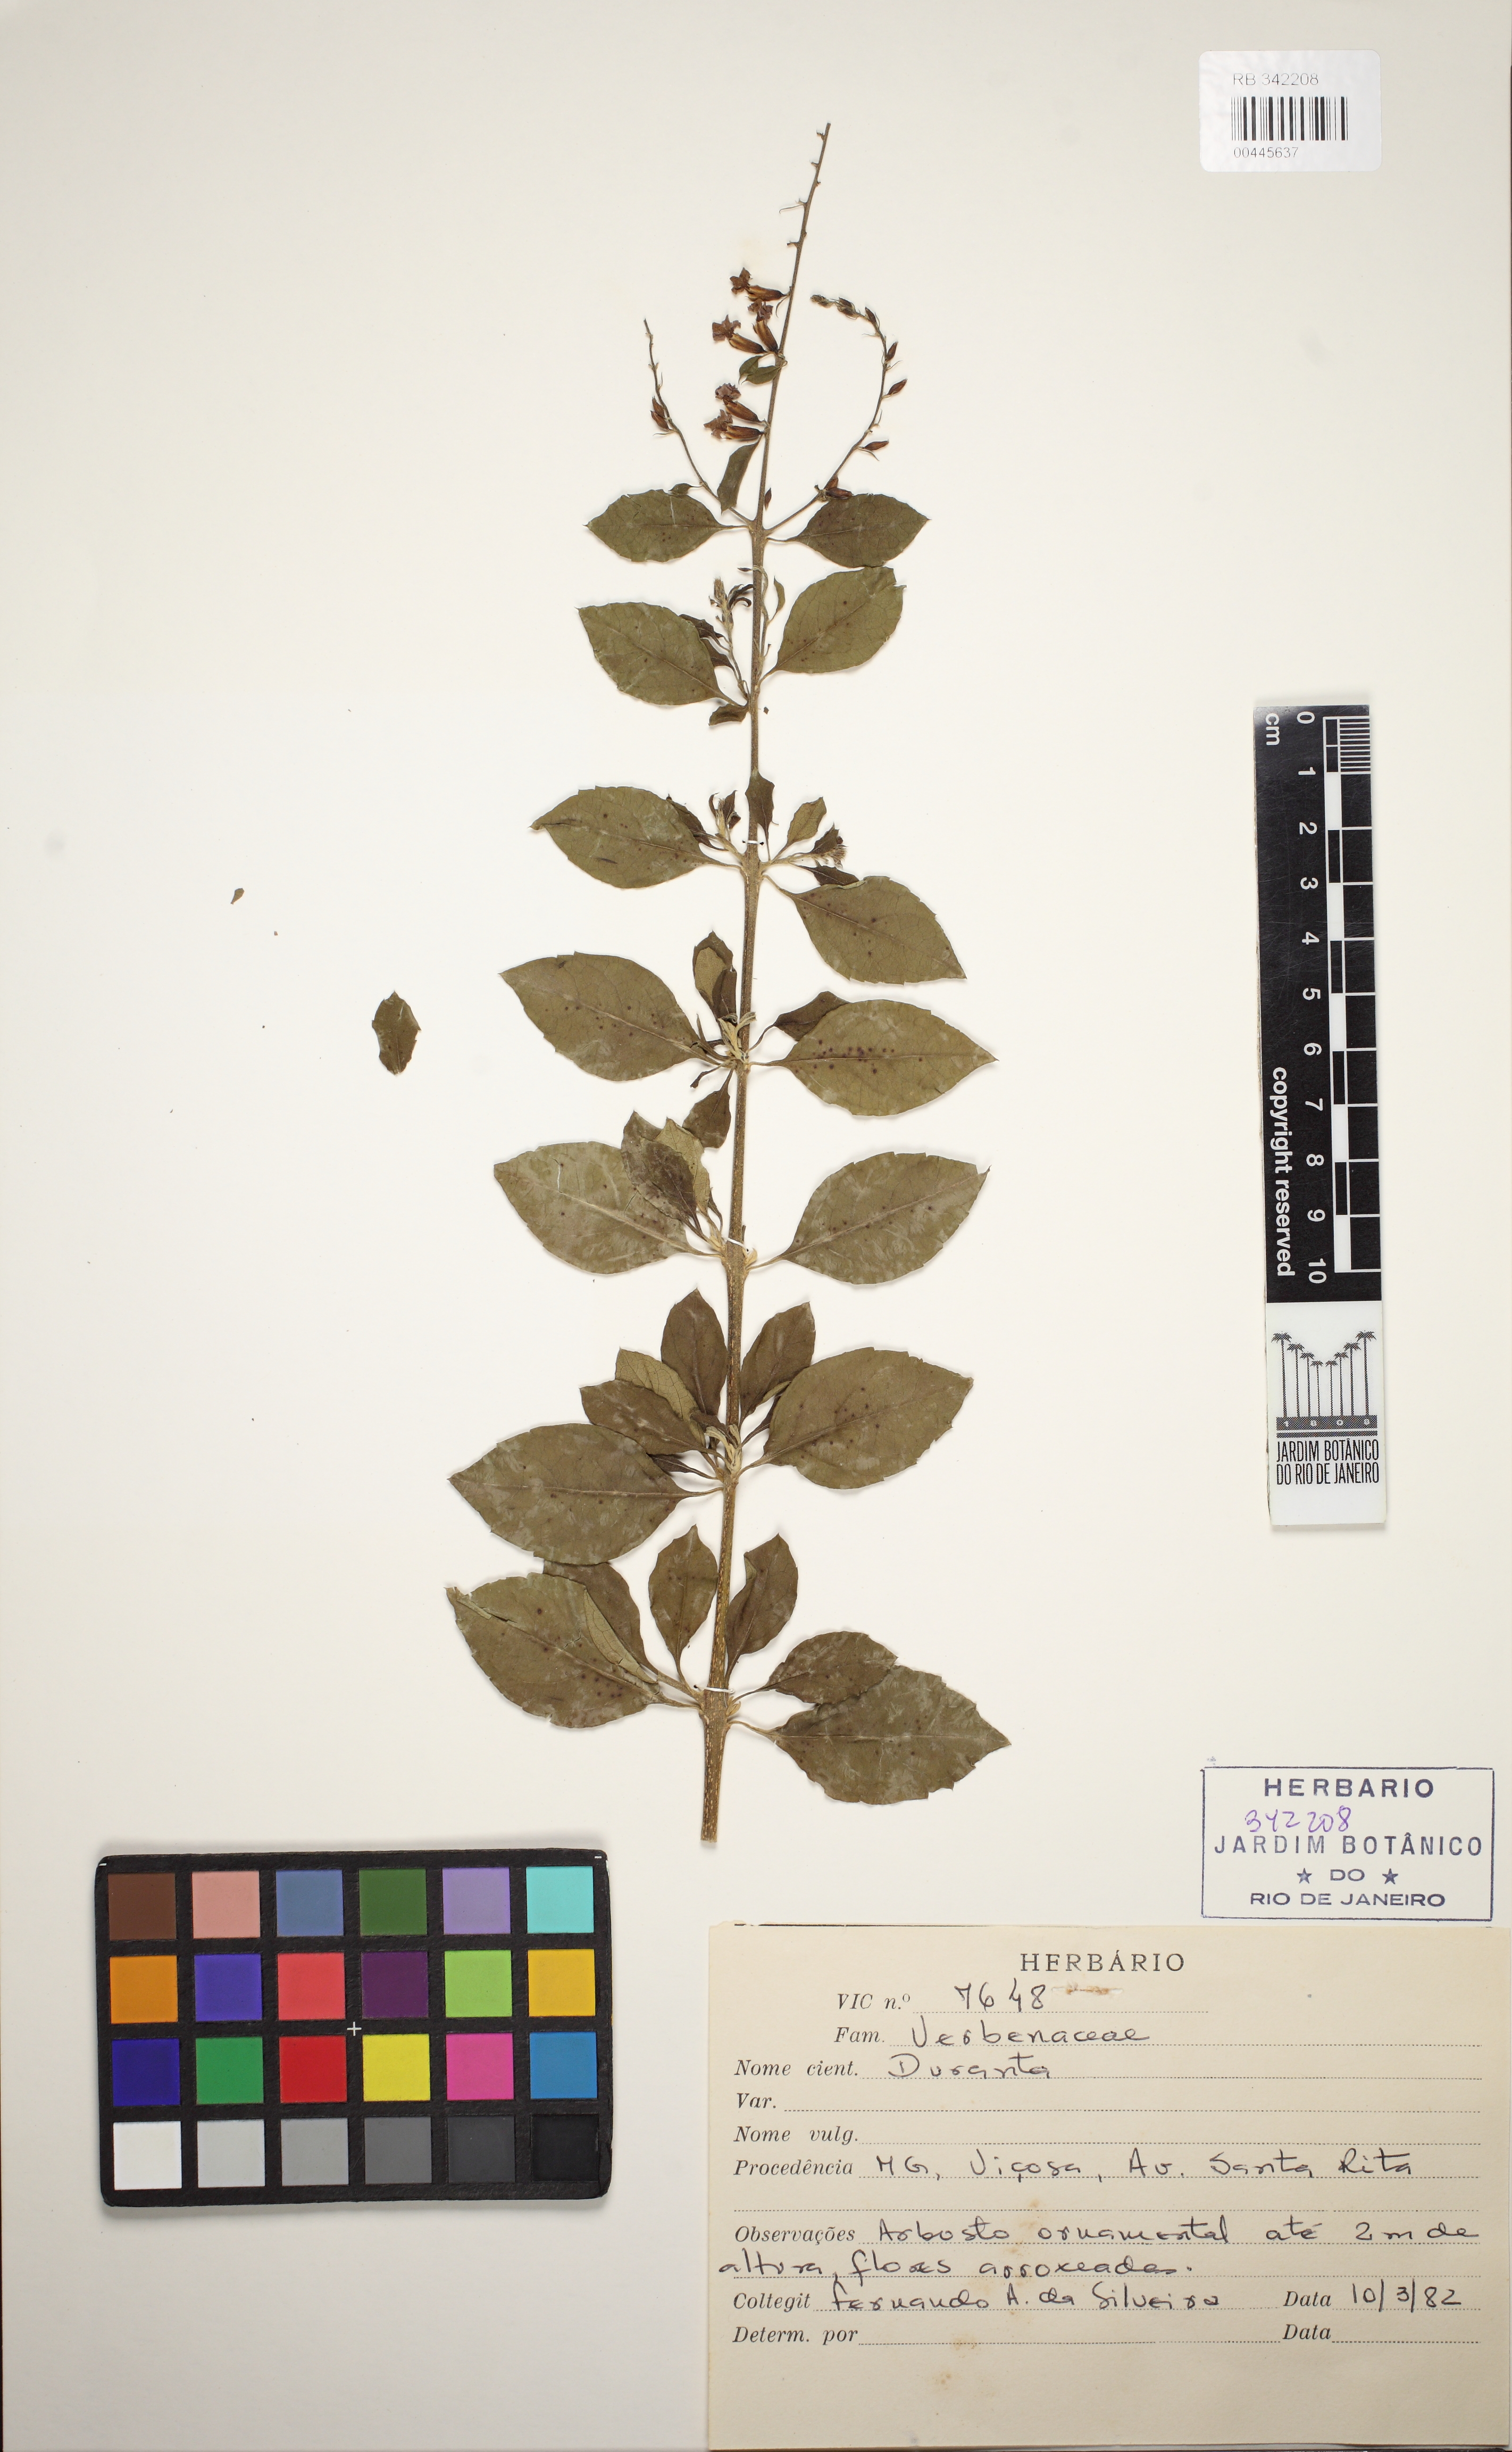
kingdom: Plantae
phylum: Tracheophyta
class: Magnoliopsida
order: Lamiales
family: Verbenaceae
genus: Duranta
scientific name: Duranta
